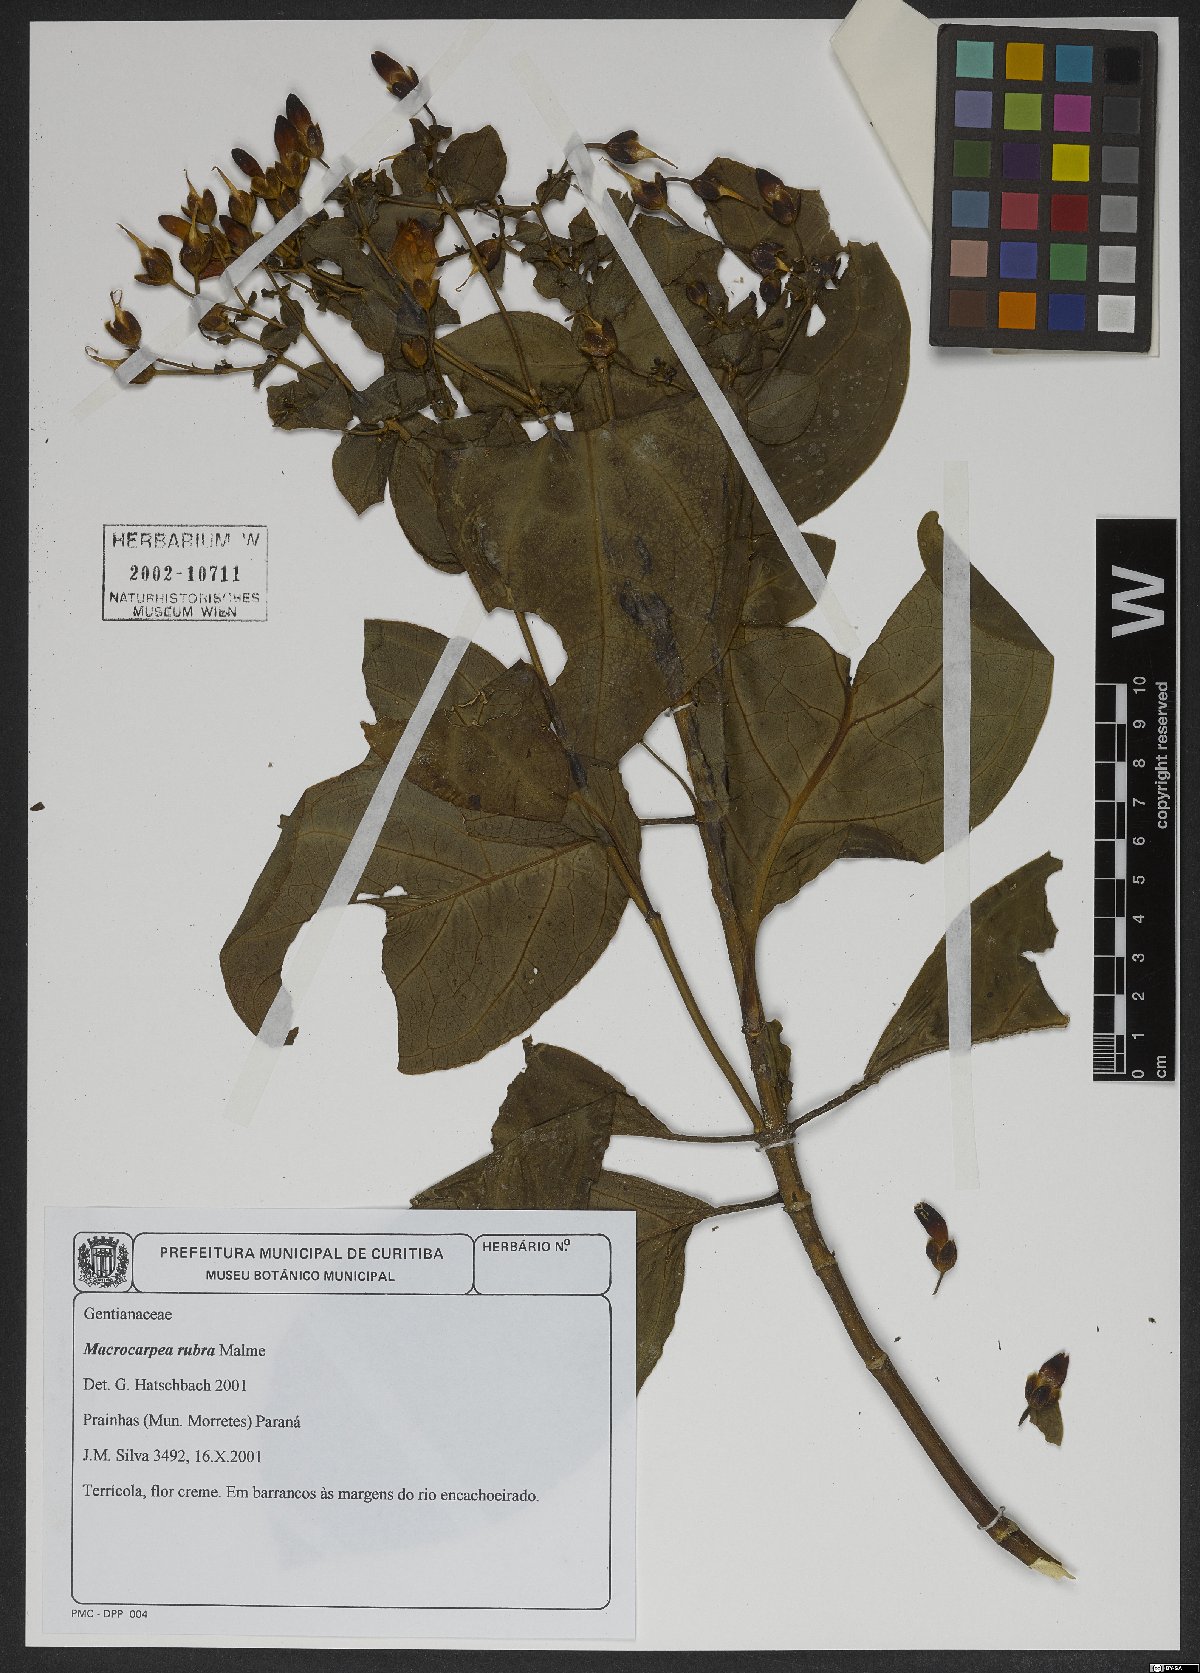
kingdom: Plantae
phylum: Tracheophyta
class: Magnoliopsida
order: Gentianales
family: Gentianaceae
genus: Macrocarpaea
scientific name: Macrocarpaea rubra
